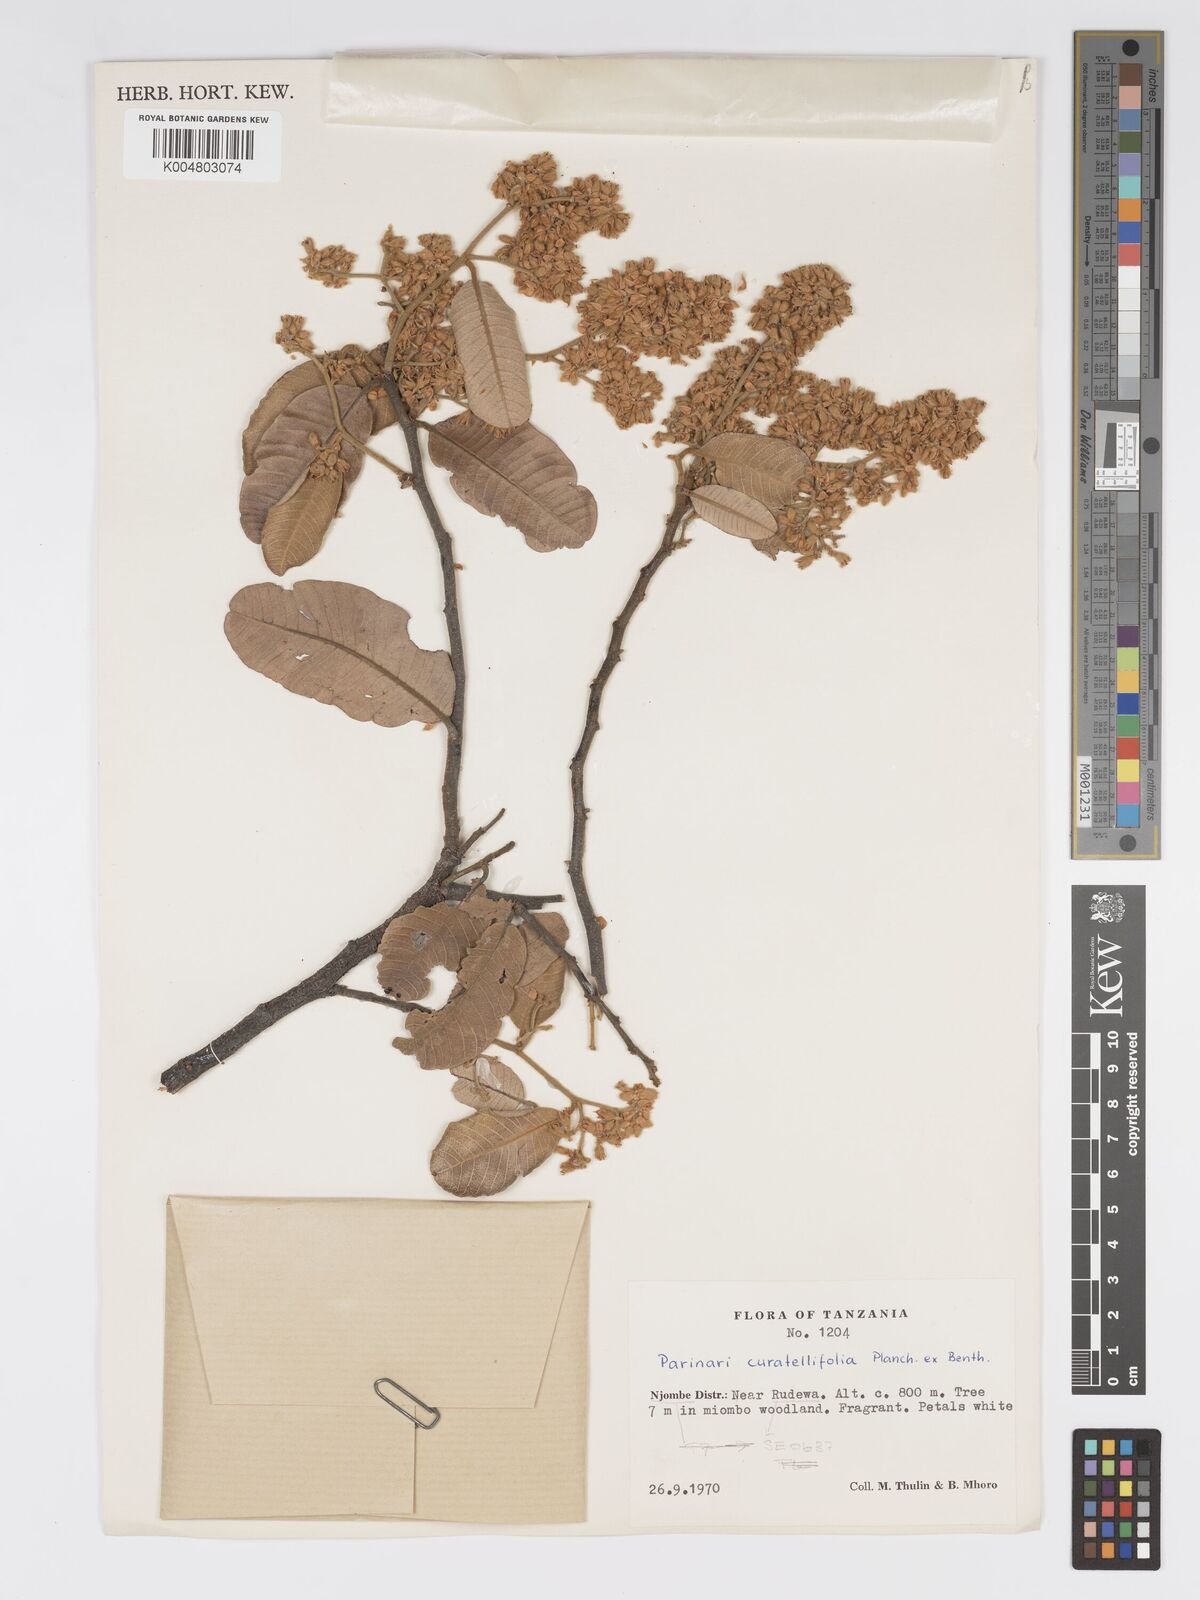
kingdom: Plantae
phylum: Tracheophyta
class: Magnoliopsida
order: Malpighiales
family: Chrysobalanaceae
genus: Parinari
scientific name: Parinari curatellifolia
